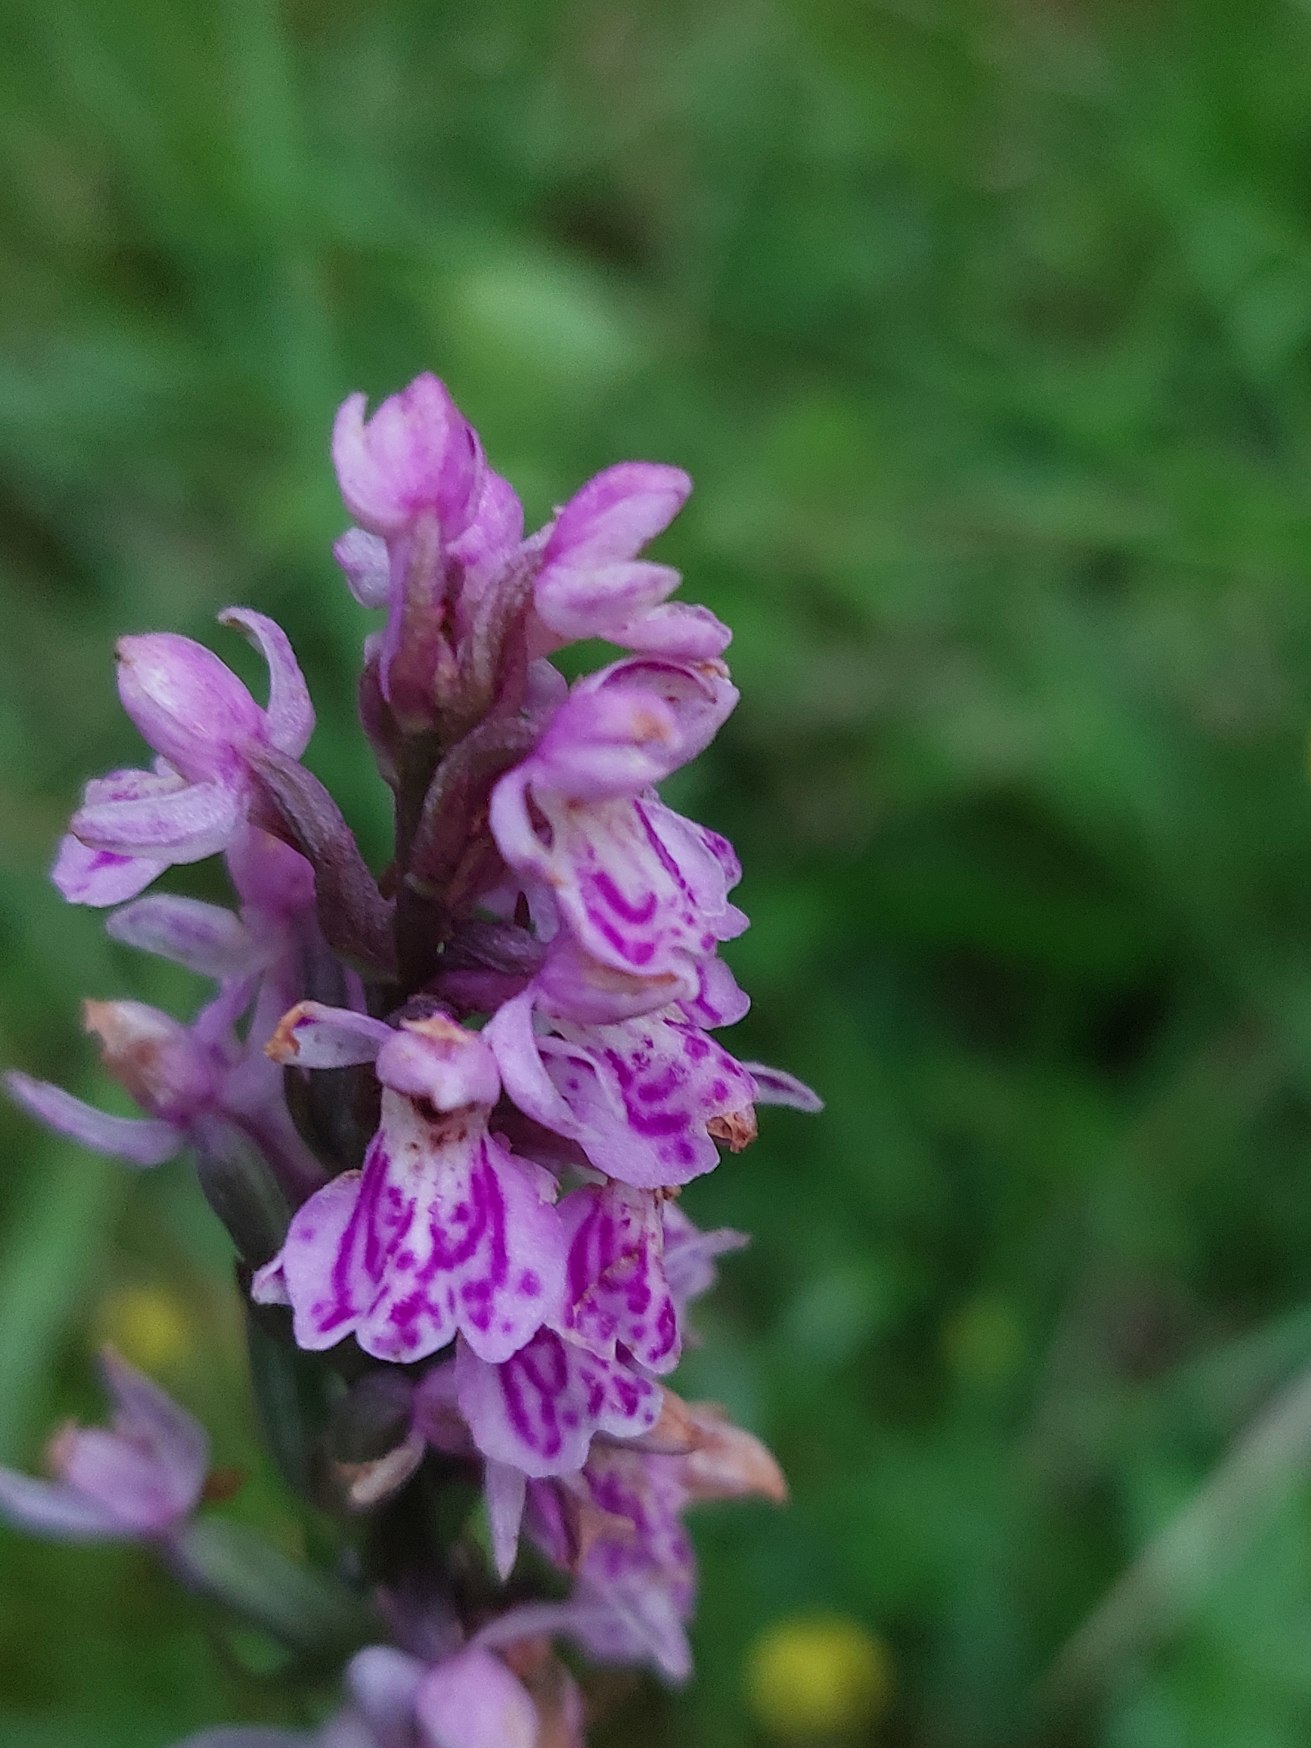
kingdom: Plantae
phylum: Tracheophyta
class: Liliopsida
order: Asparagales
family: Orchidaceae
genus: Dactylorhiza
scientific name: Dactylorhiza maculata
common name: Plettet gøgeurt
